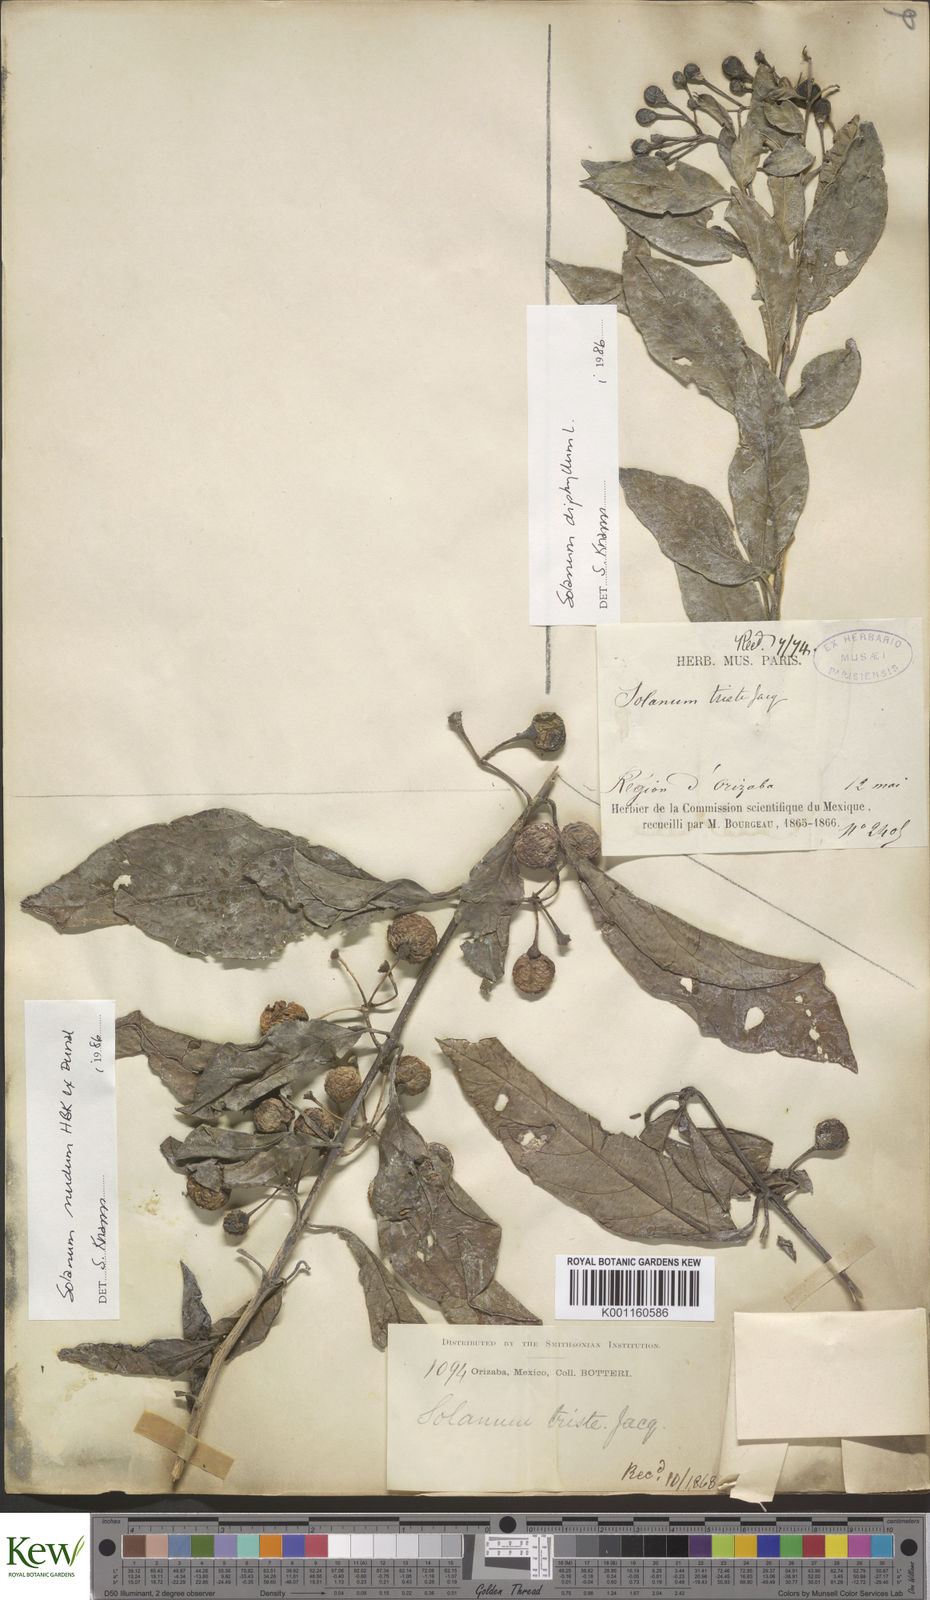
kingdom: Plantae
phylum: Tracheophyta
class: Magnoliopsida
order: Solanales
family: Solanaceae
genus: Solanum
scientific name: Solanum nudum
